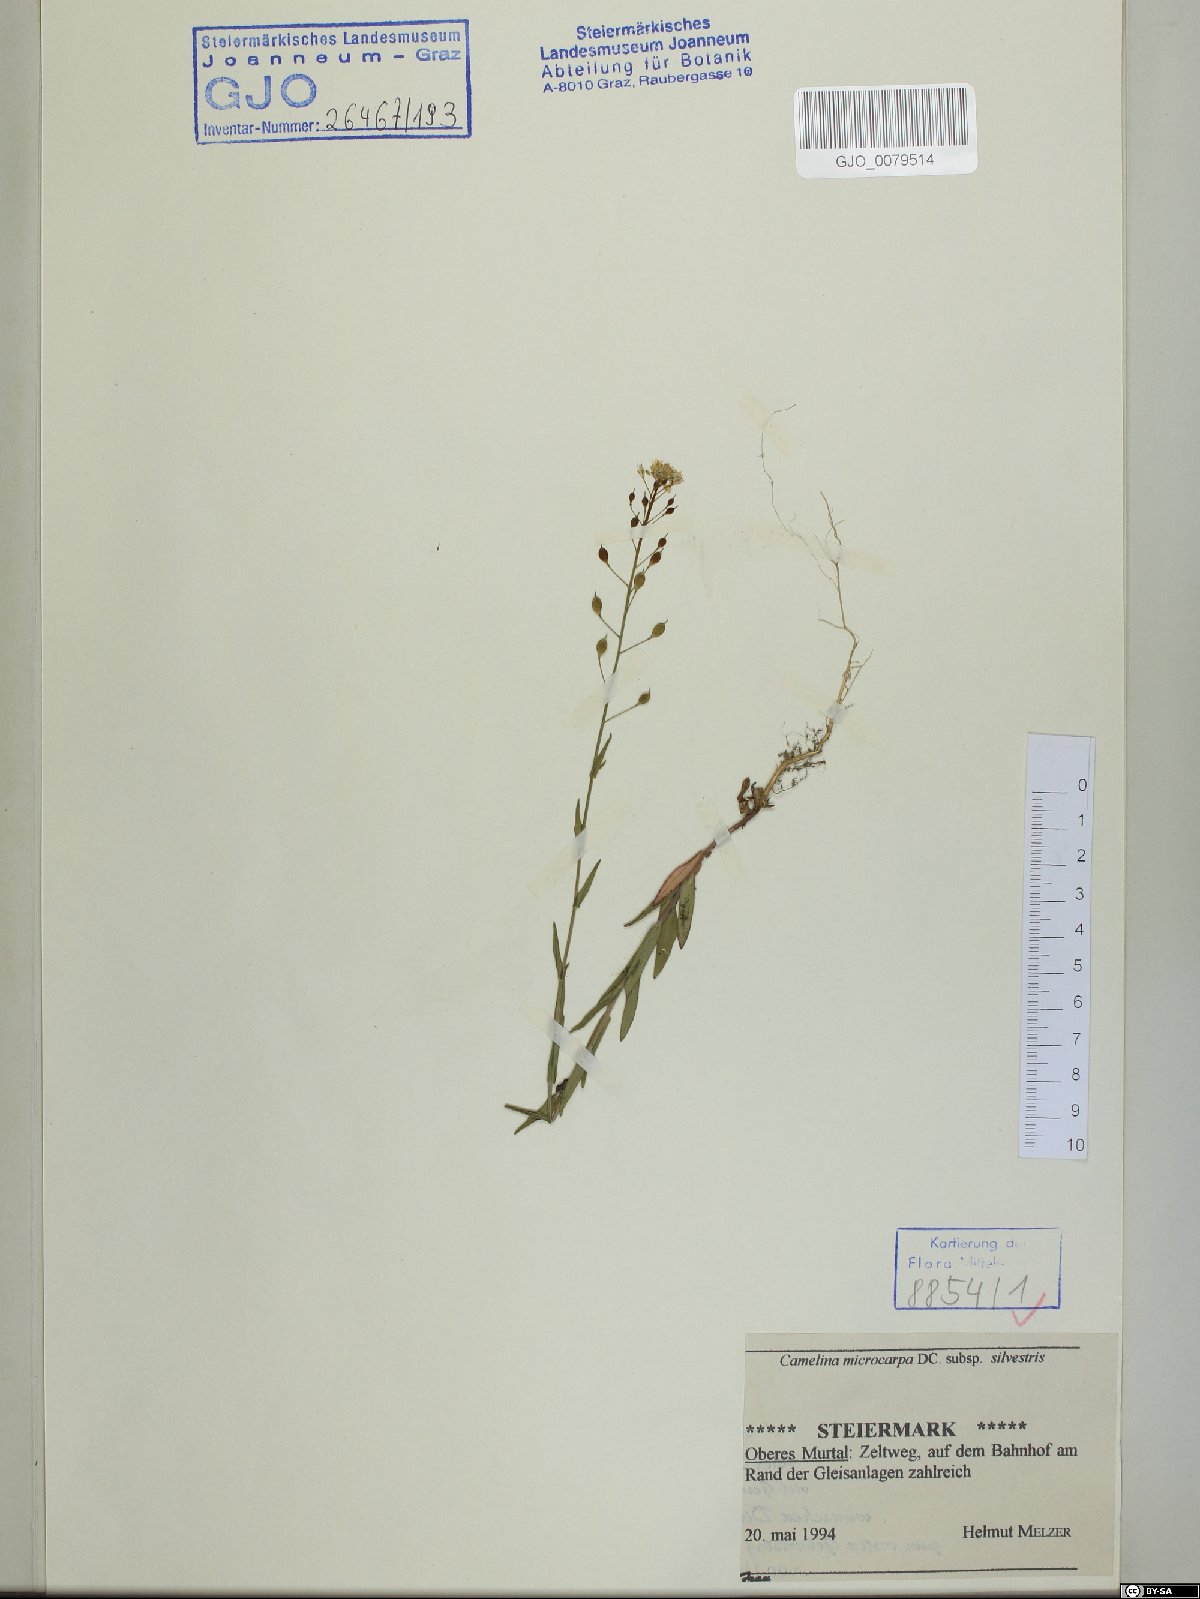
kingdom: Plantae
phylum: Tracheophyta
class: Magnoliopsida
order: Brassicales
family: Brassicaceae
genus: Camelina
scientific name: Camelina microcarpa
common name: Lesser gold-of-pleasure
